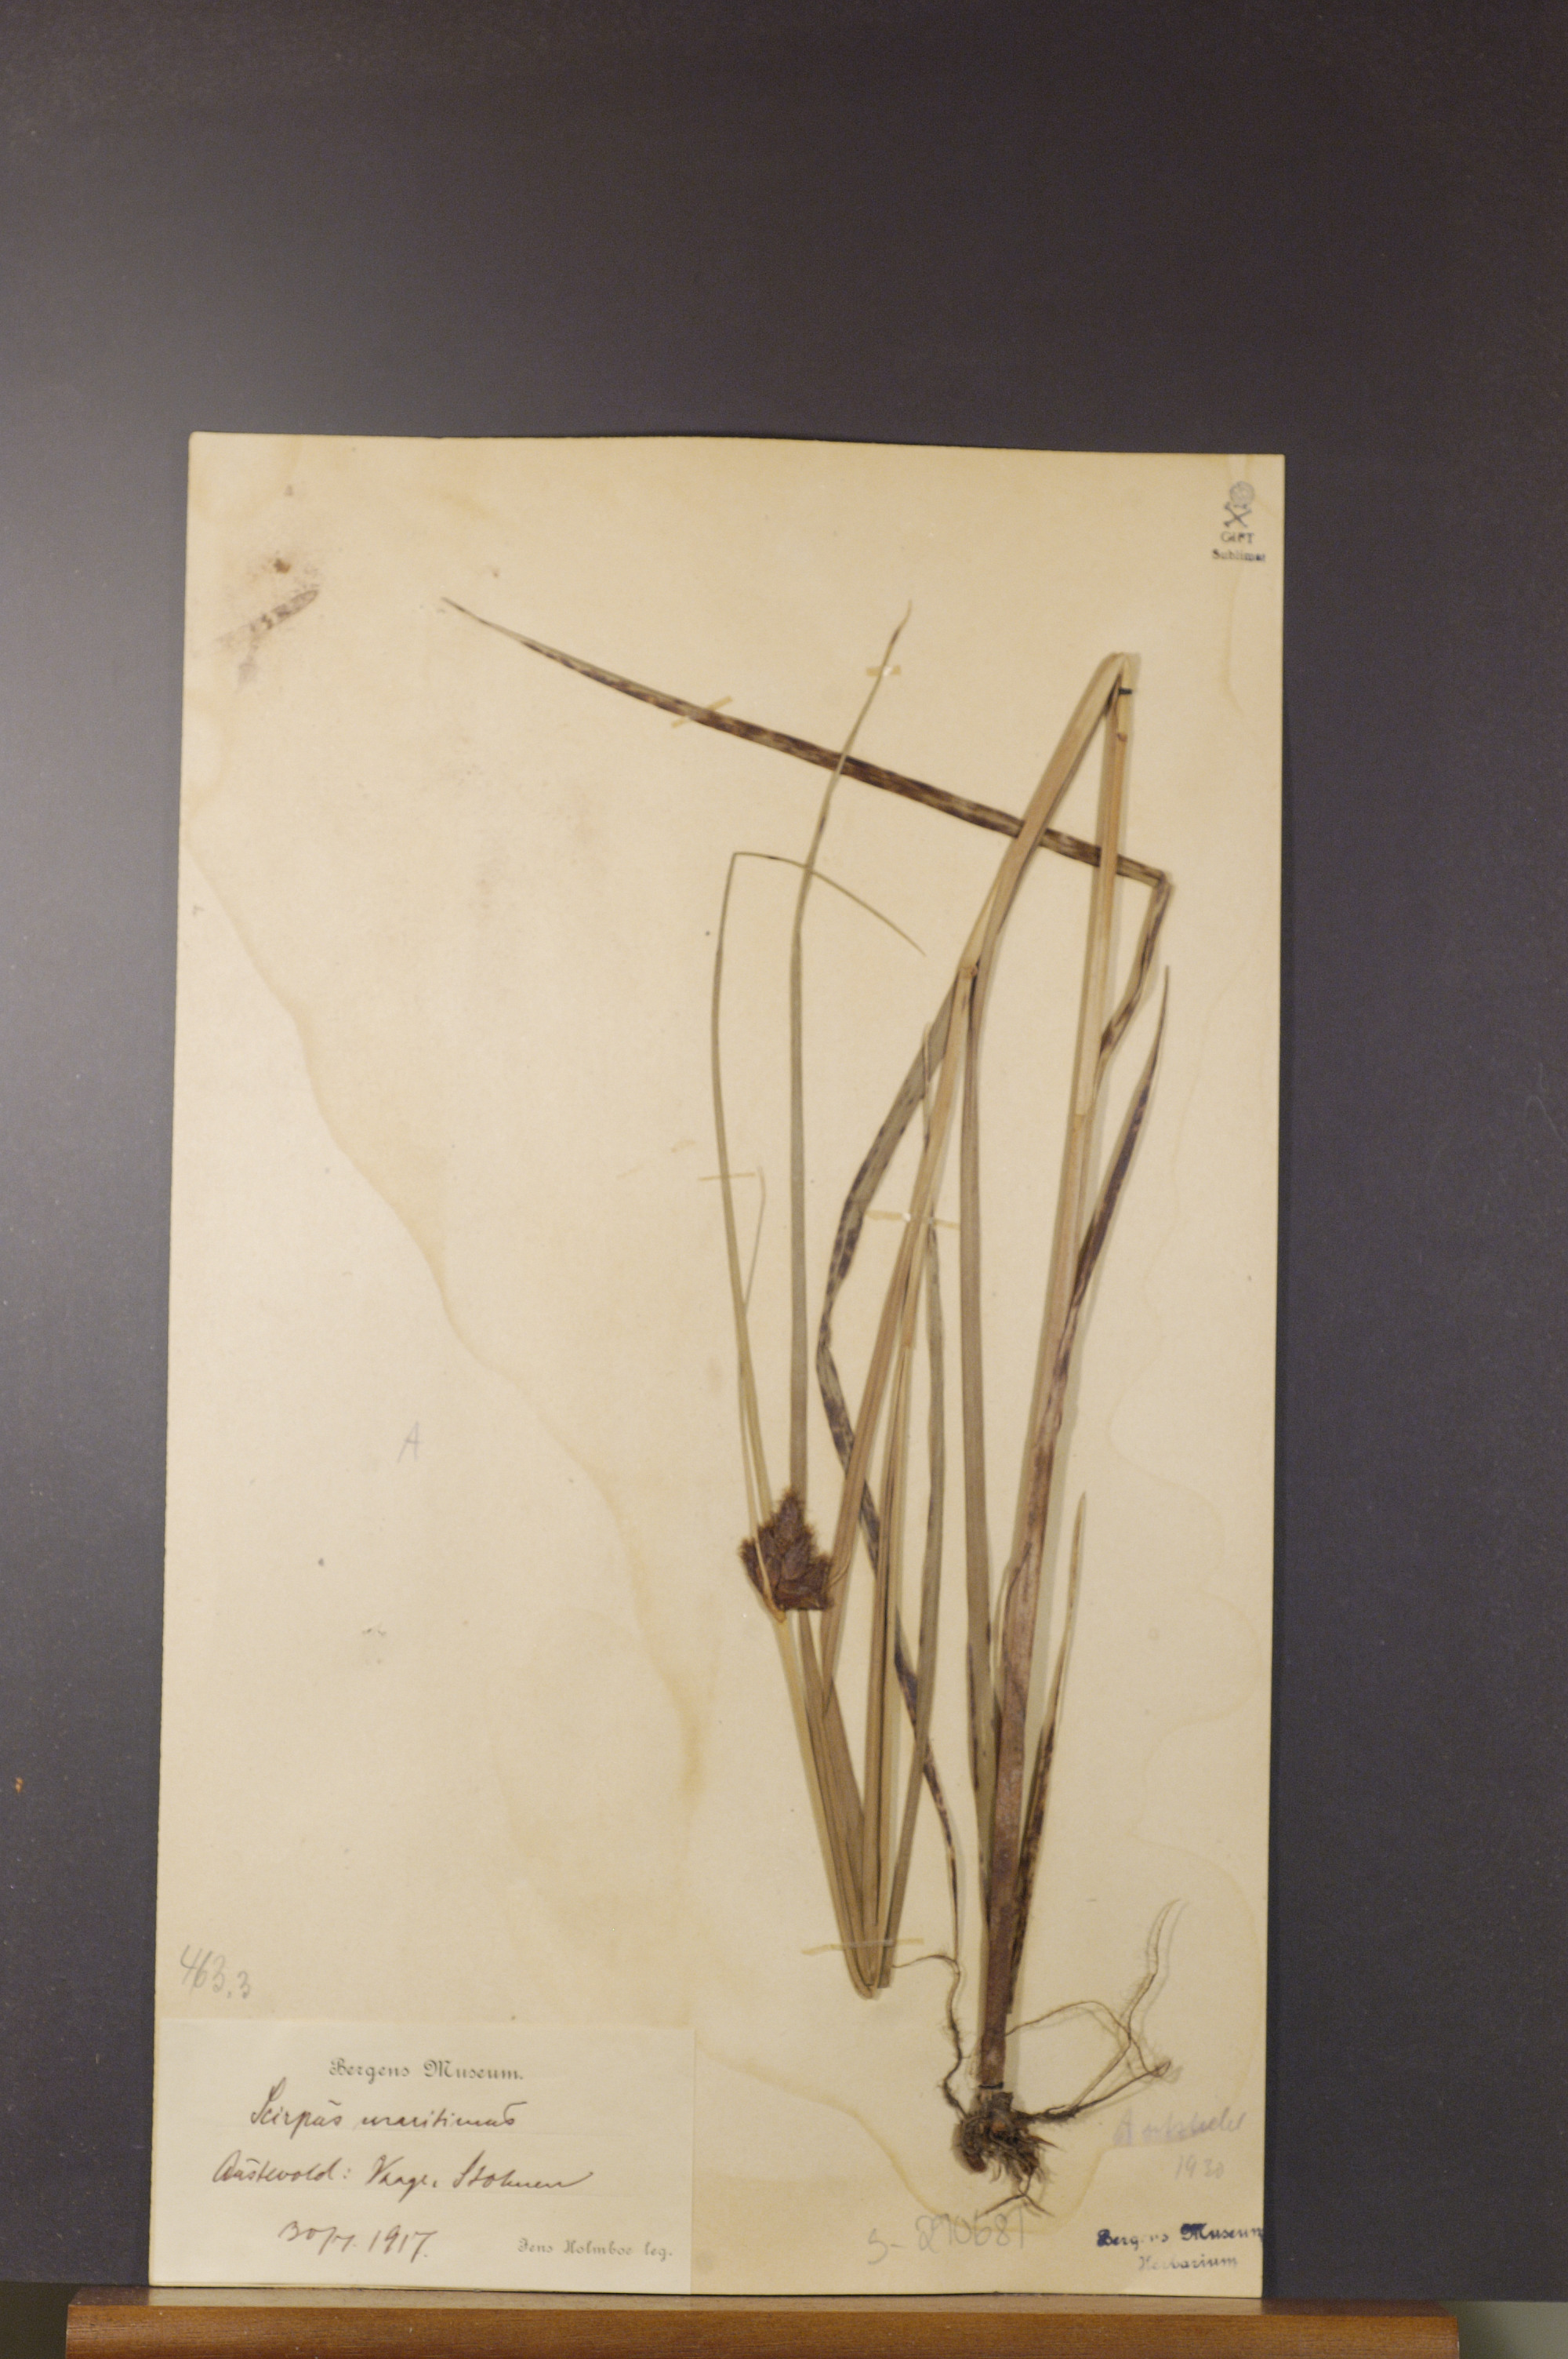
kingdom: Plantae
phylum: Tracheophyta
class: Liliopsida
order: Poales
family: Cyperaceae
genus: Bolboschoenus
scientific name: Bolboschoenus maritimus
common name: Sea club-rush
